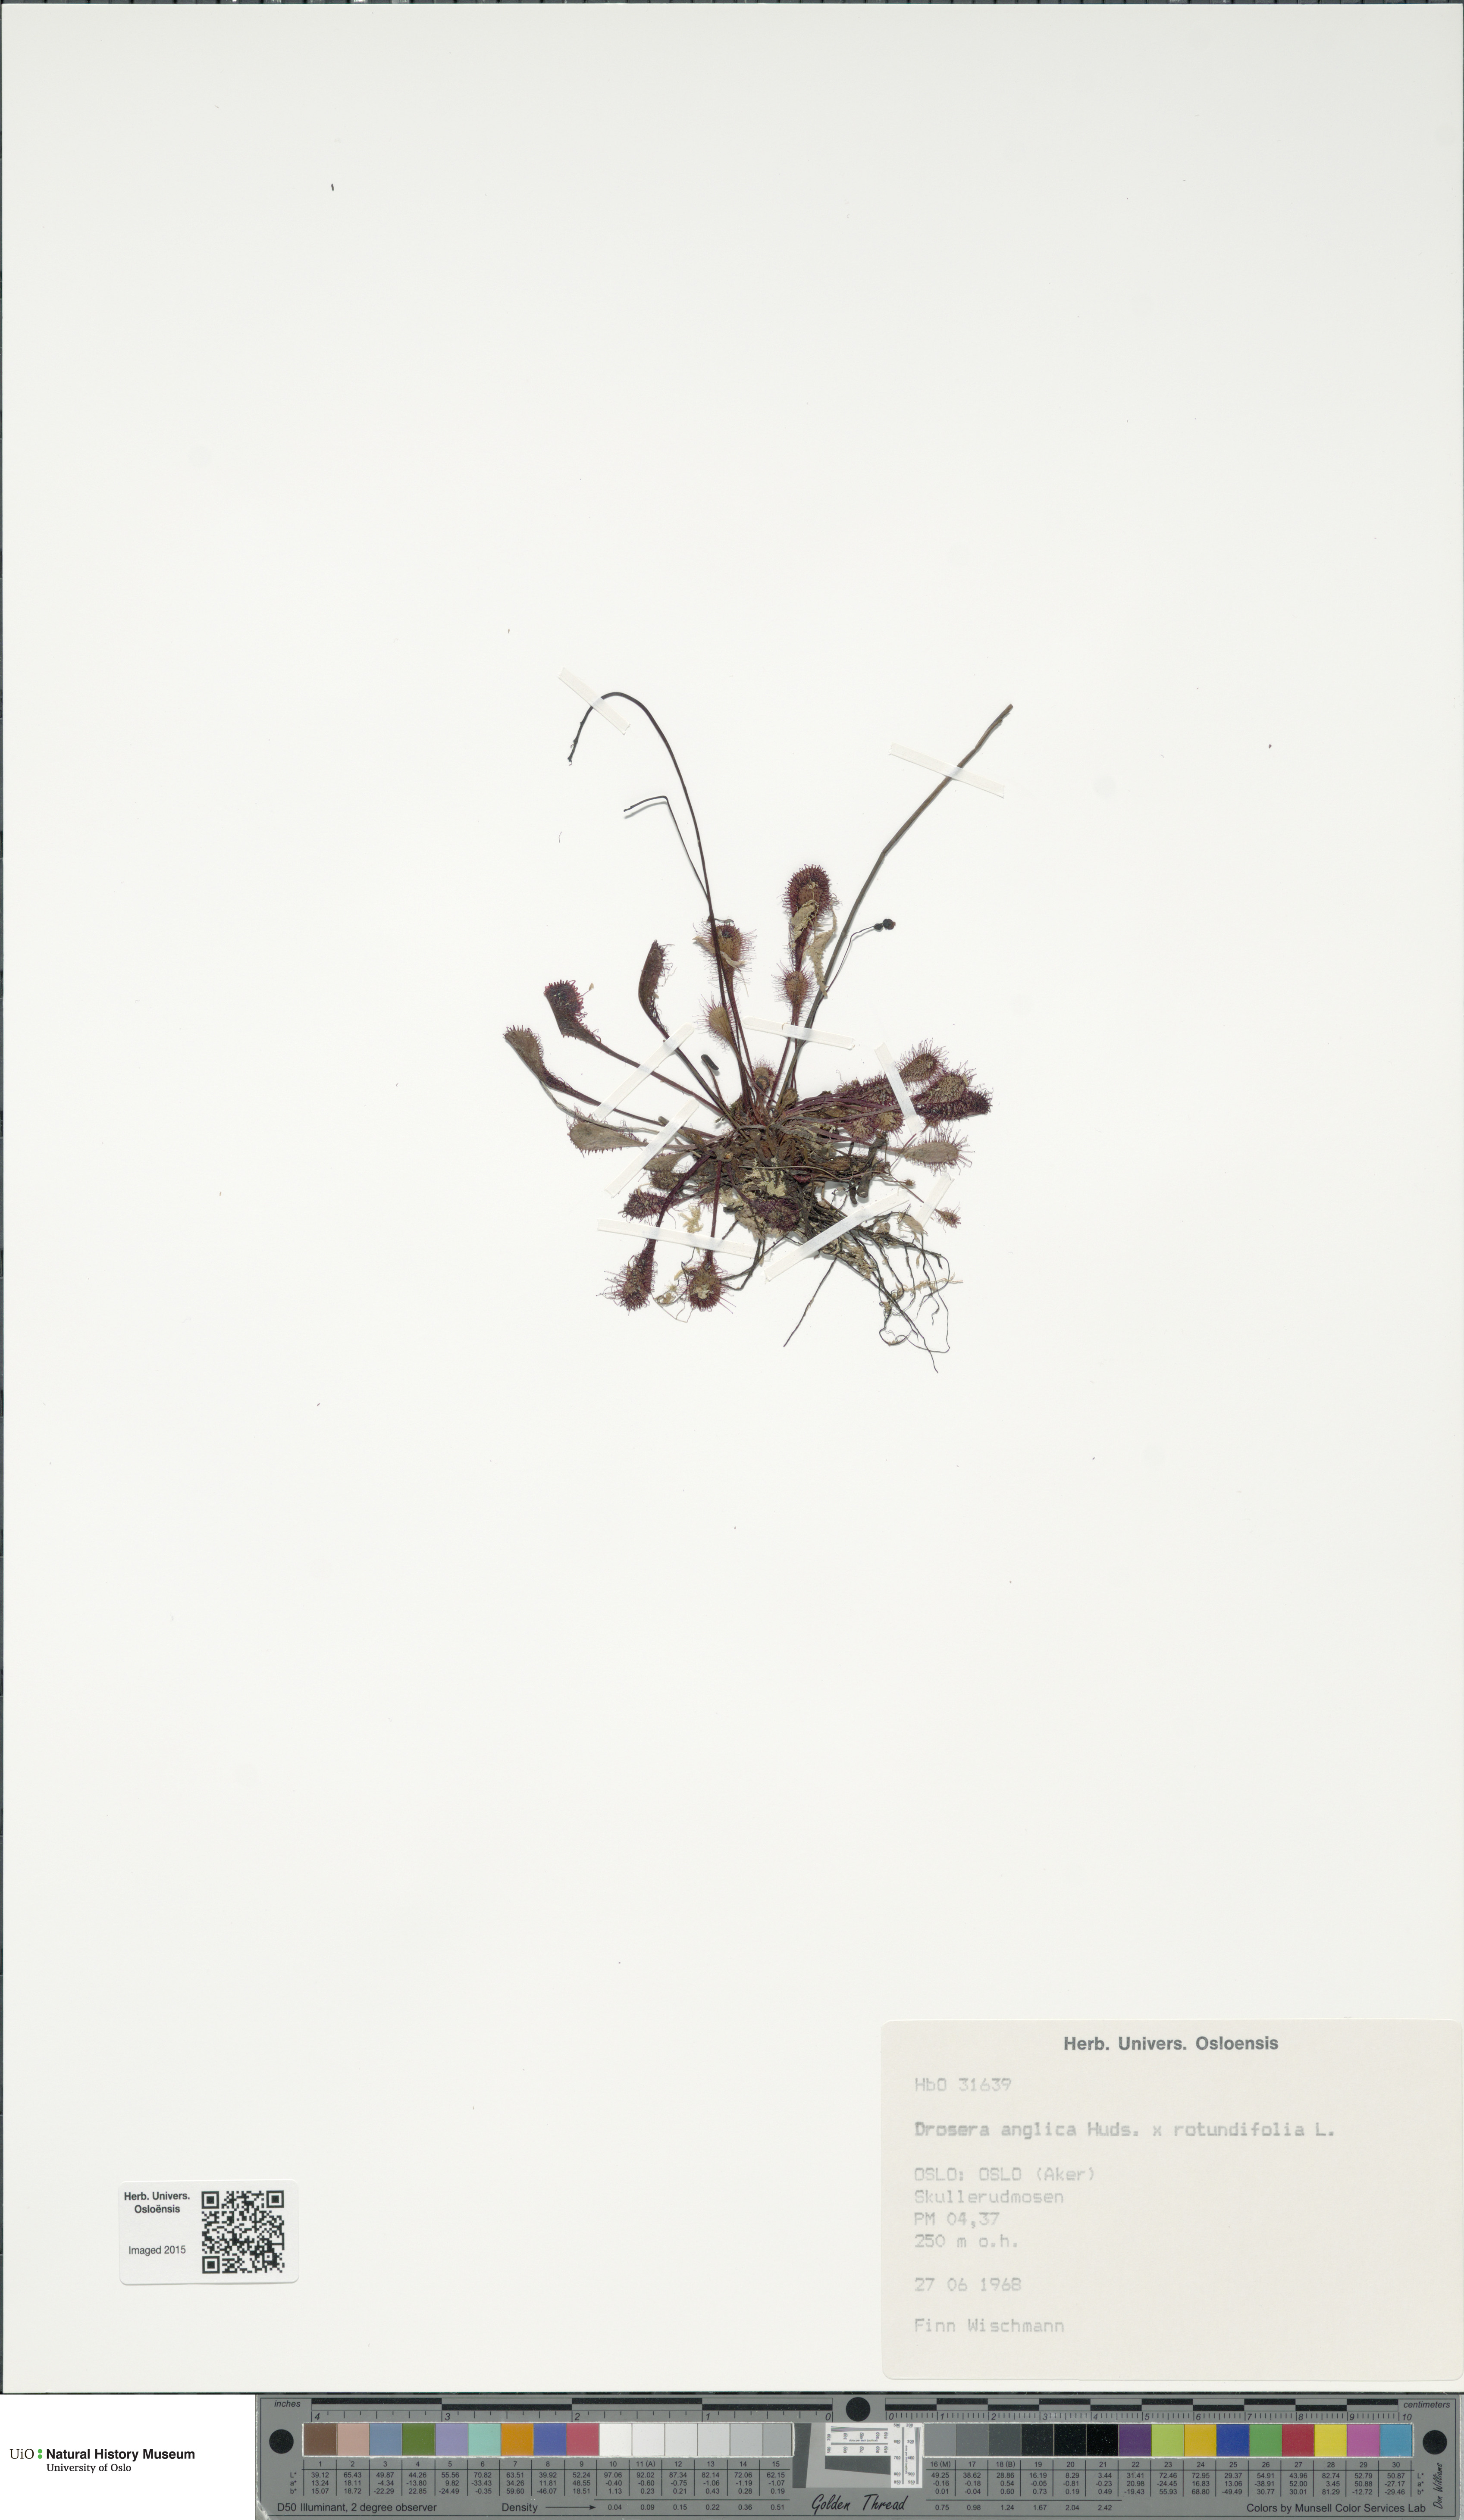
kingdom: Plantae
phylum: Tracheophyta
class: Magnoliopsida
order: Caryophyllales
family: Droseraceae
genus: Drosera
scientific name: Drosera
